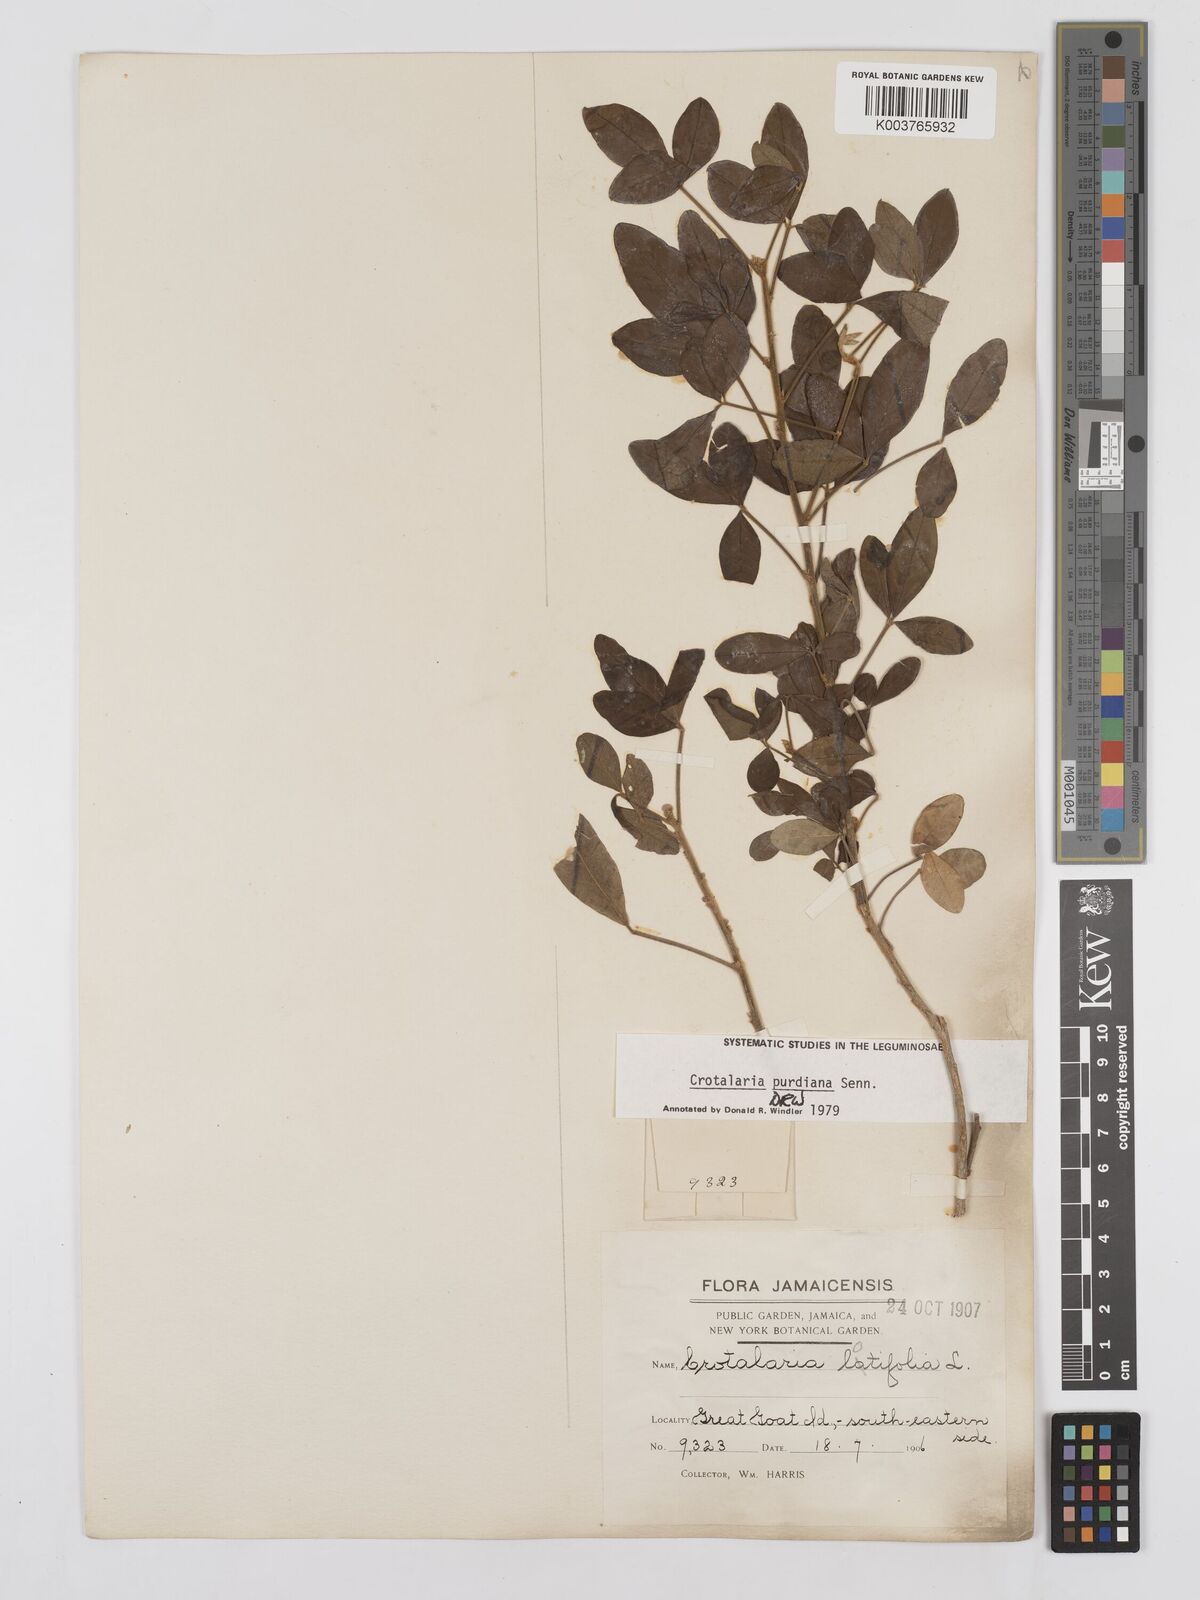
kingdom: Plantae
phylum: Tracheophyta
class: Magnoliopsida
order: Fabales
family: Fabaceae
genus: Crotalaria
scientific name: Crotalaria purdieana
